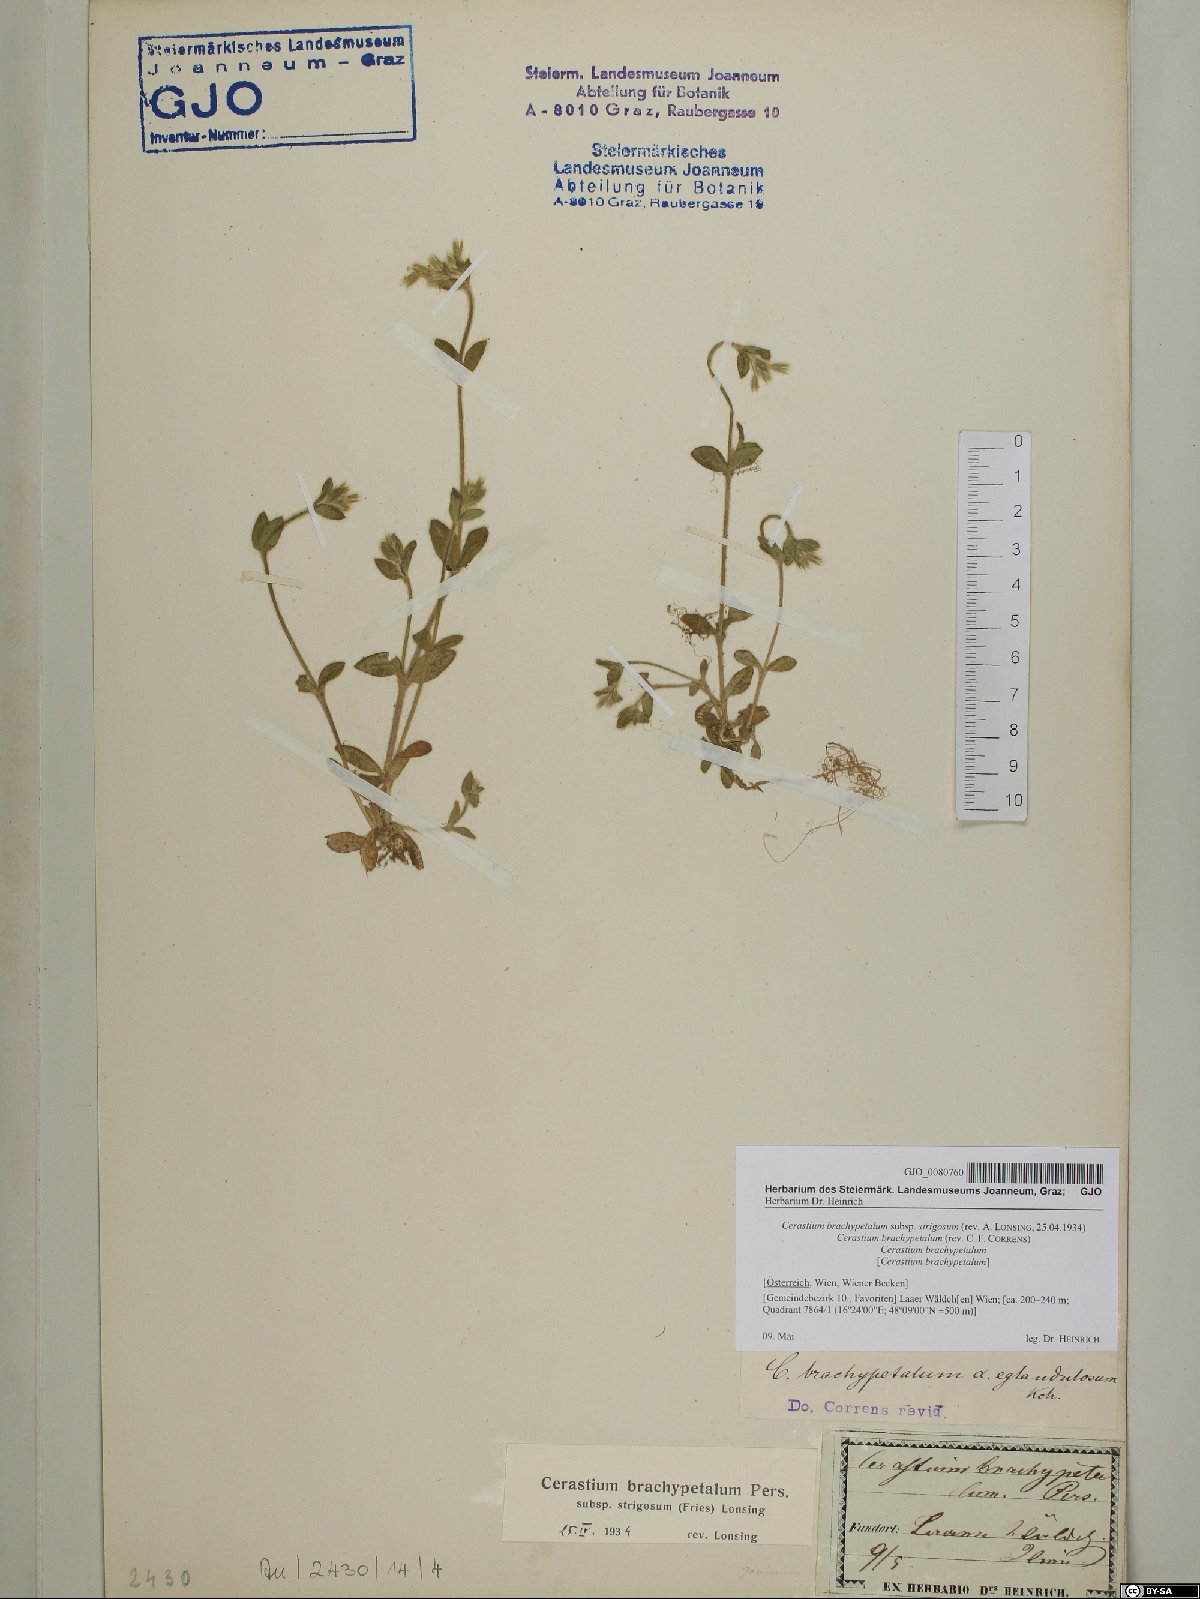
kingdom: Plantae
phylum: Tracheophyta
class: Magnoliopsida
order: Caryophyllales
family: Caryophyllaceae
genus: Cerastium
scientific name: Cerastium brachypetalum
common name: Grey mouse-ear
